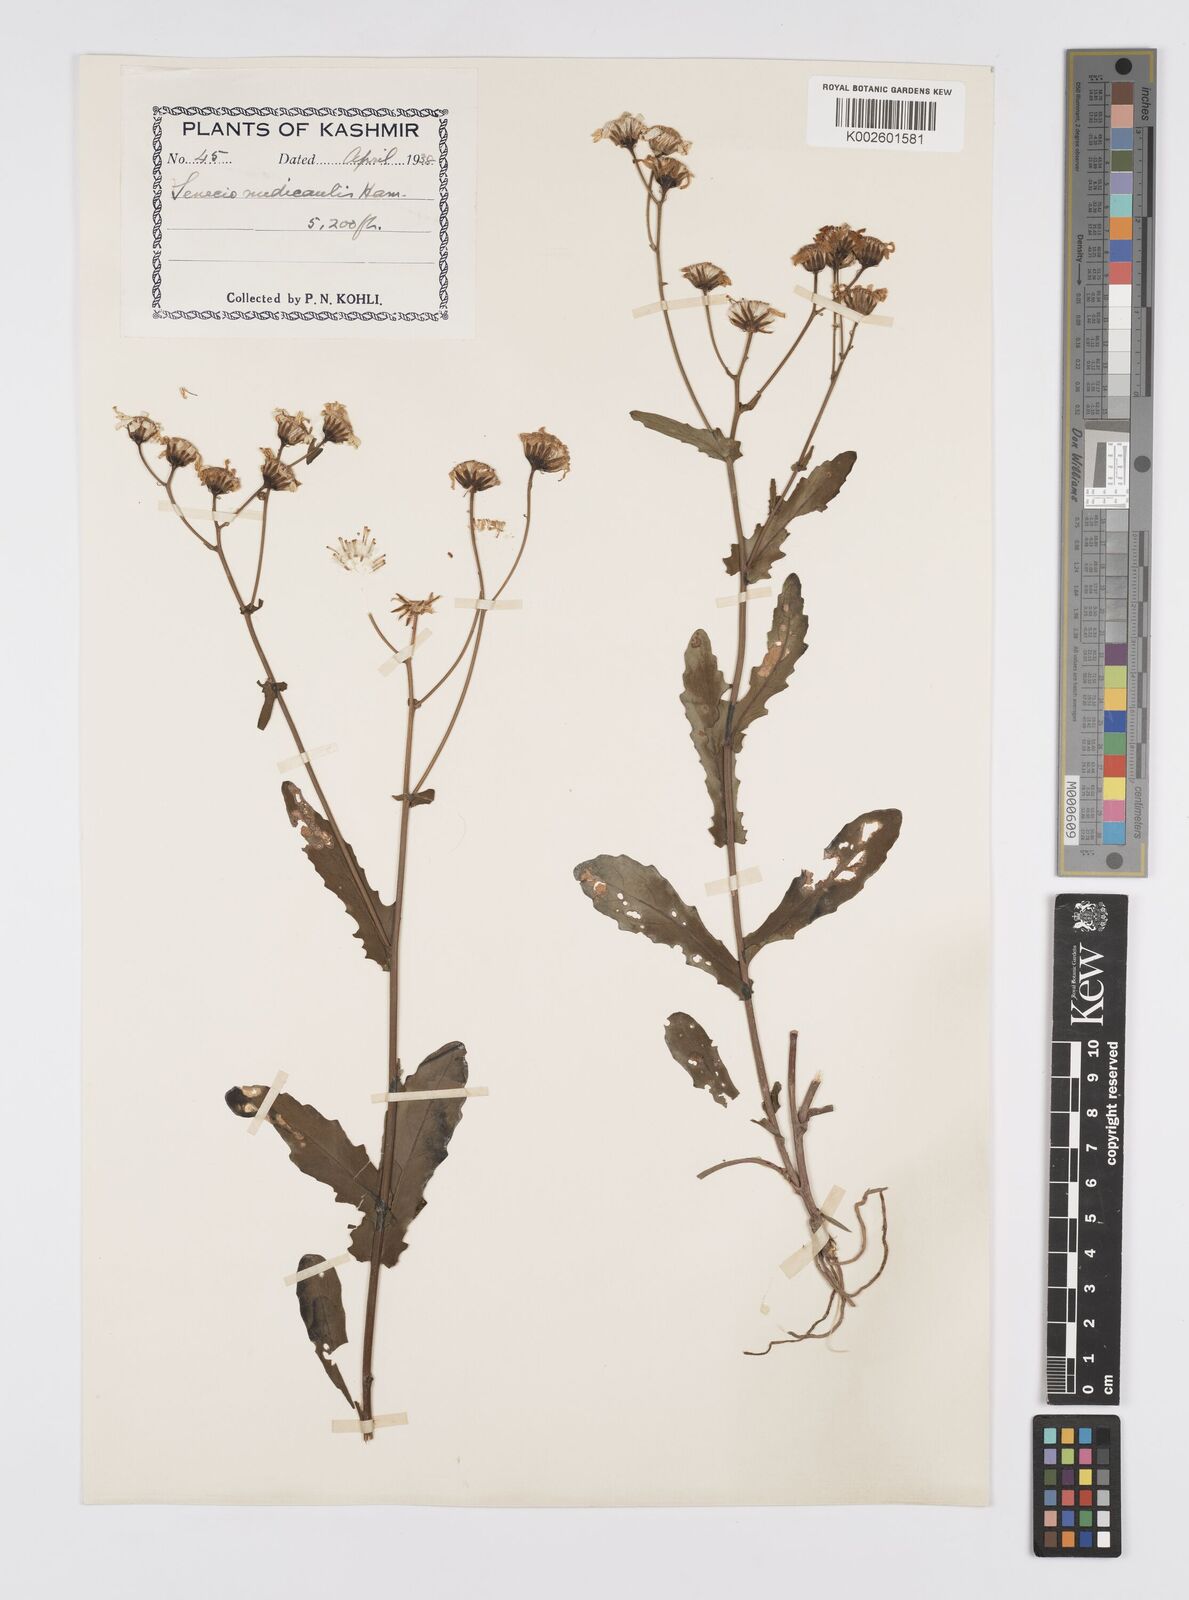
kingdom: Plantae
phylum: Tracheophyta
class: Magnoliopsida
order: Asterales
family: Asteraceae
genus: Jacobaea
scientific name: Jacobaea nudicaulis
